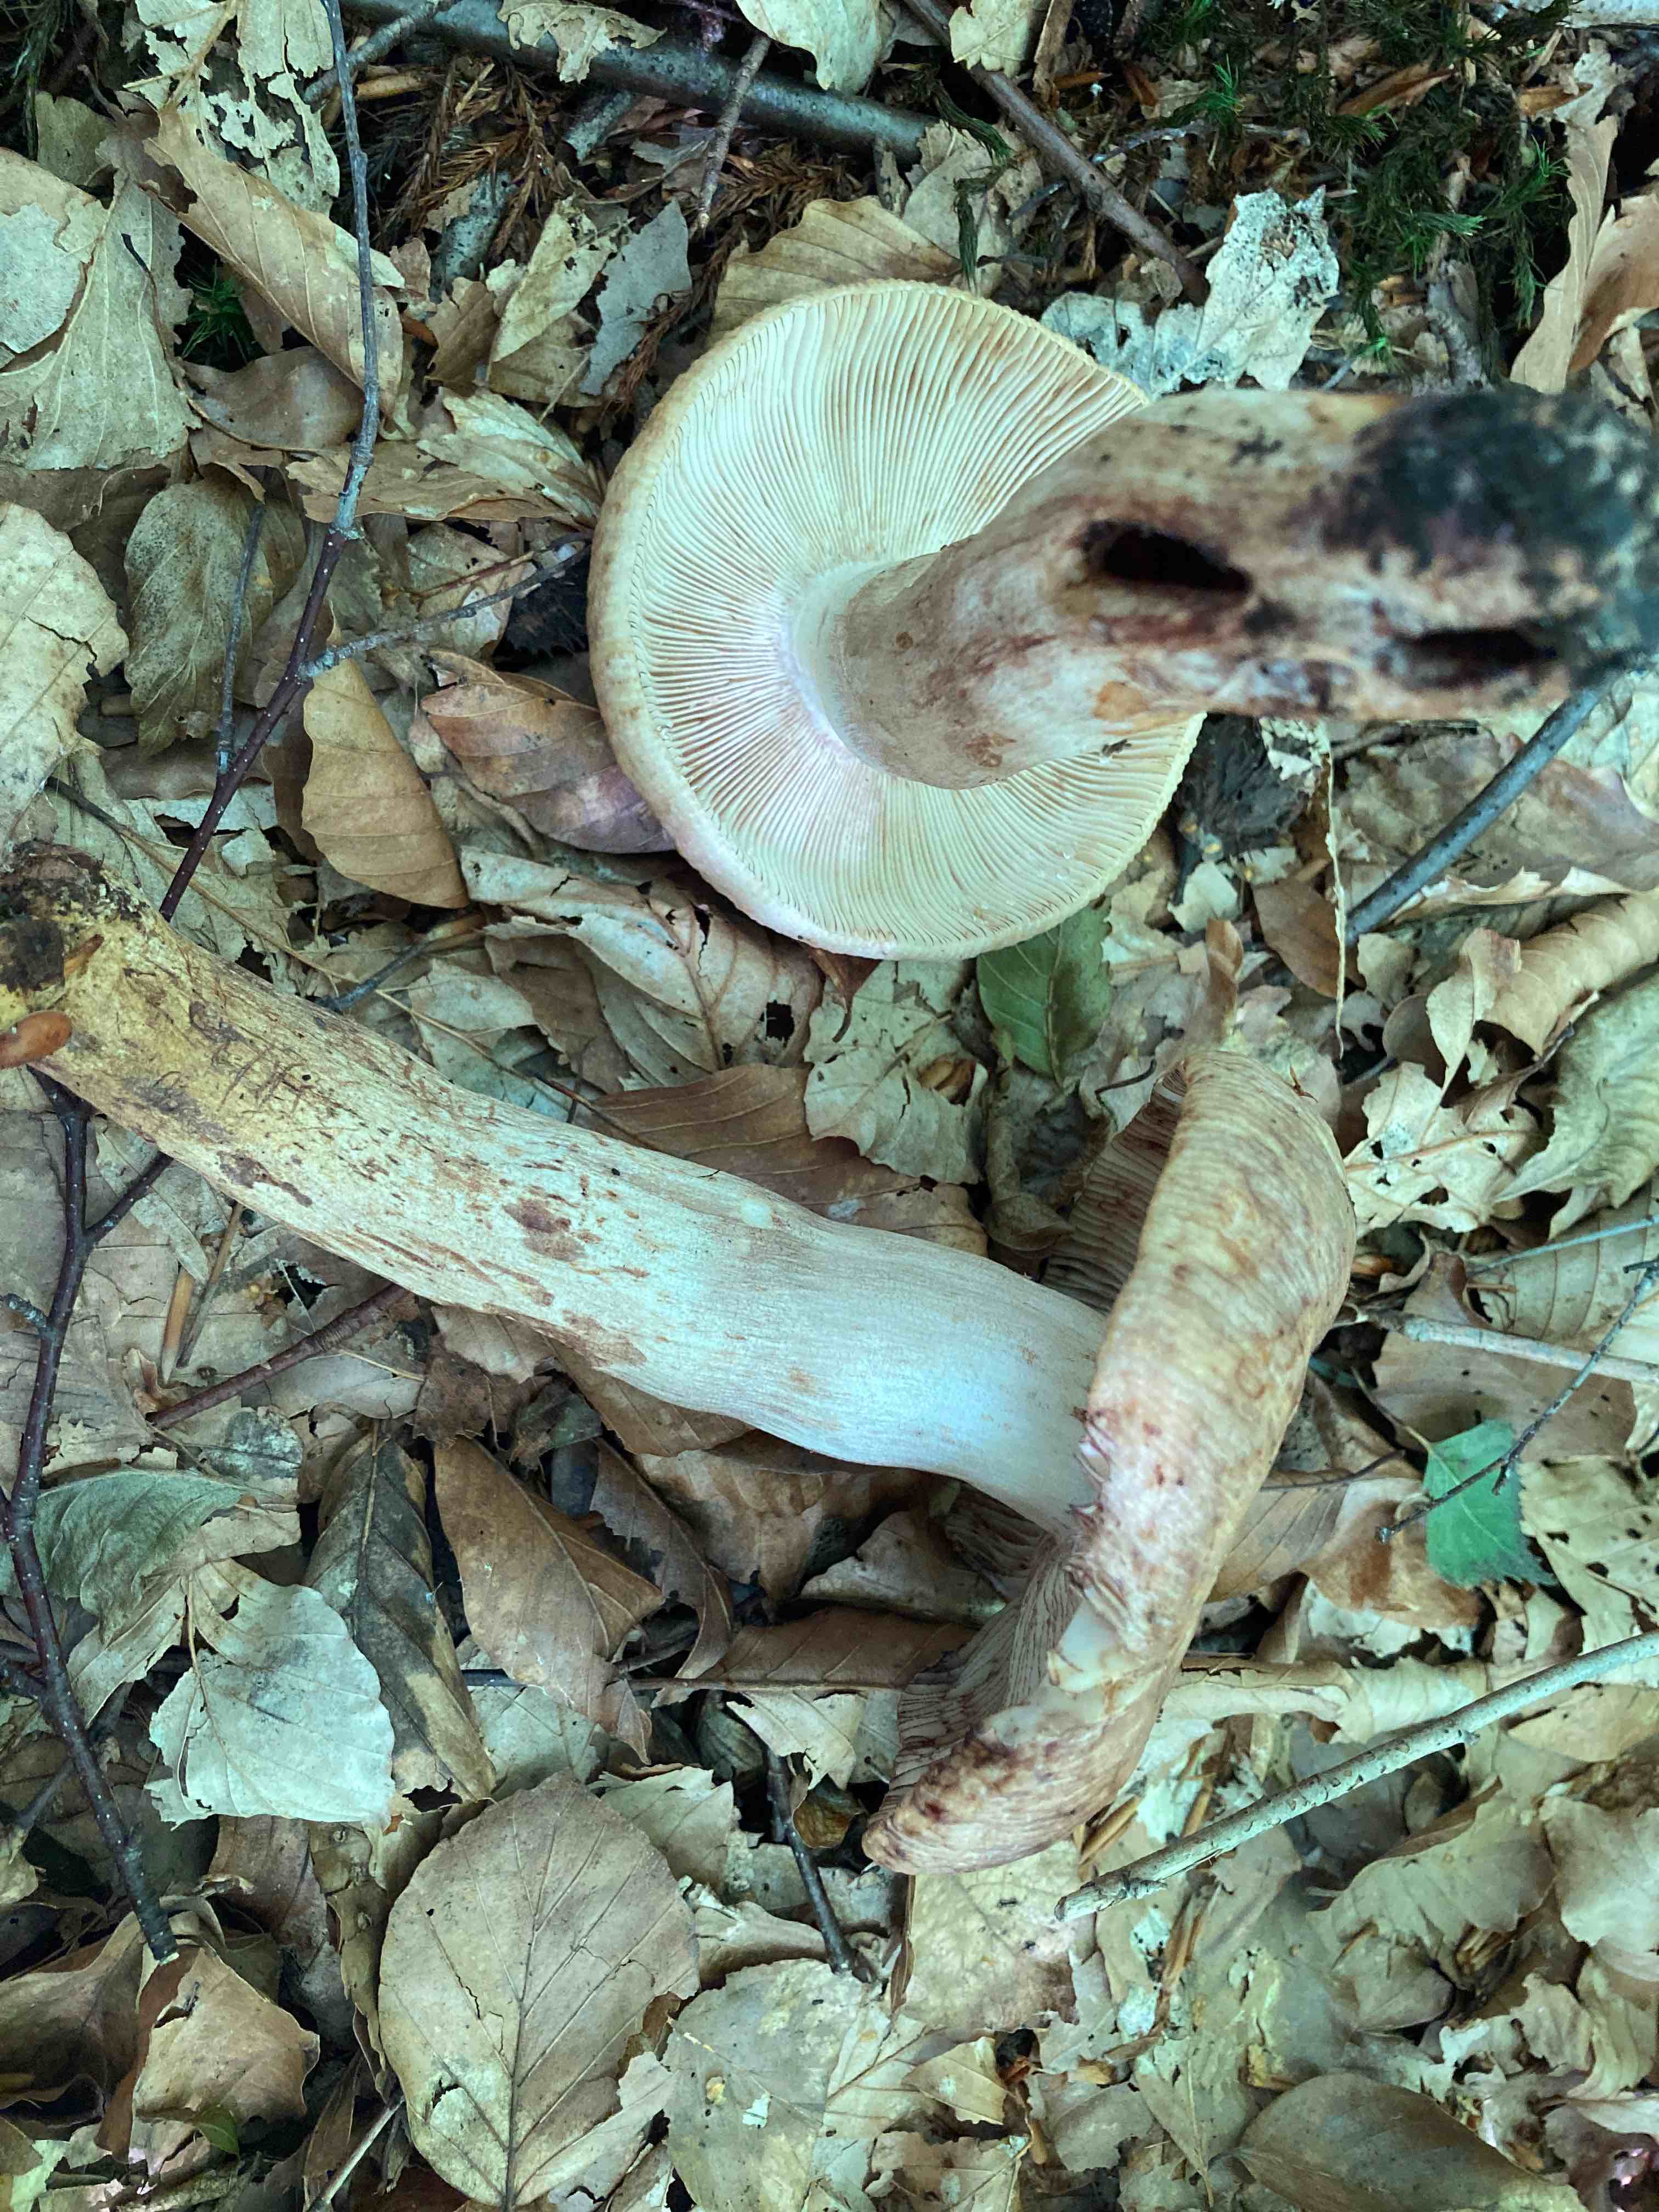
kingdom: Fungi
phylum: Basidiomycota
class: Agaricomycetes
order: Russulales
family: Russulaceae
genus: Russula
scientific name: Russula illota
